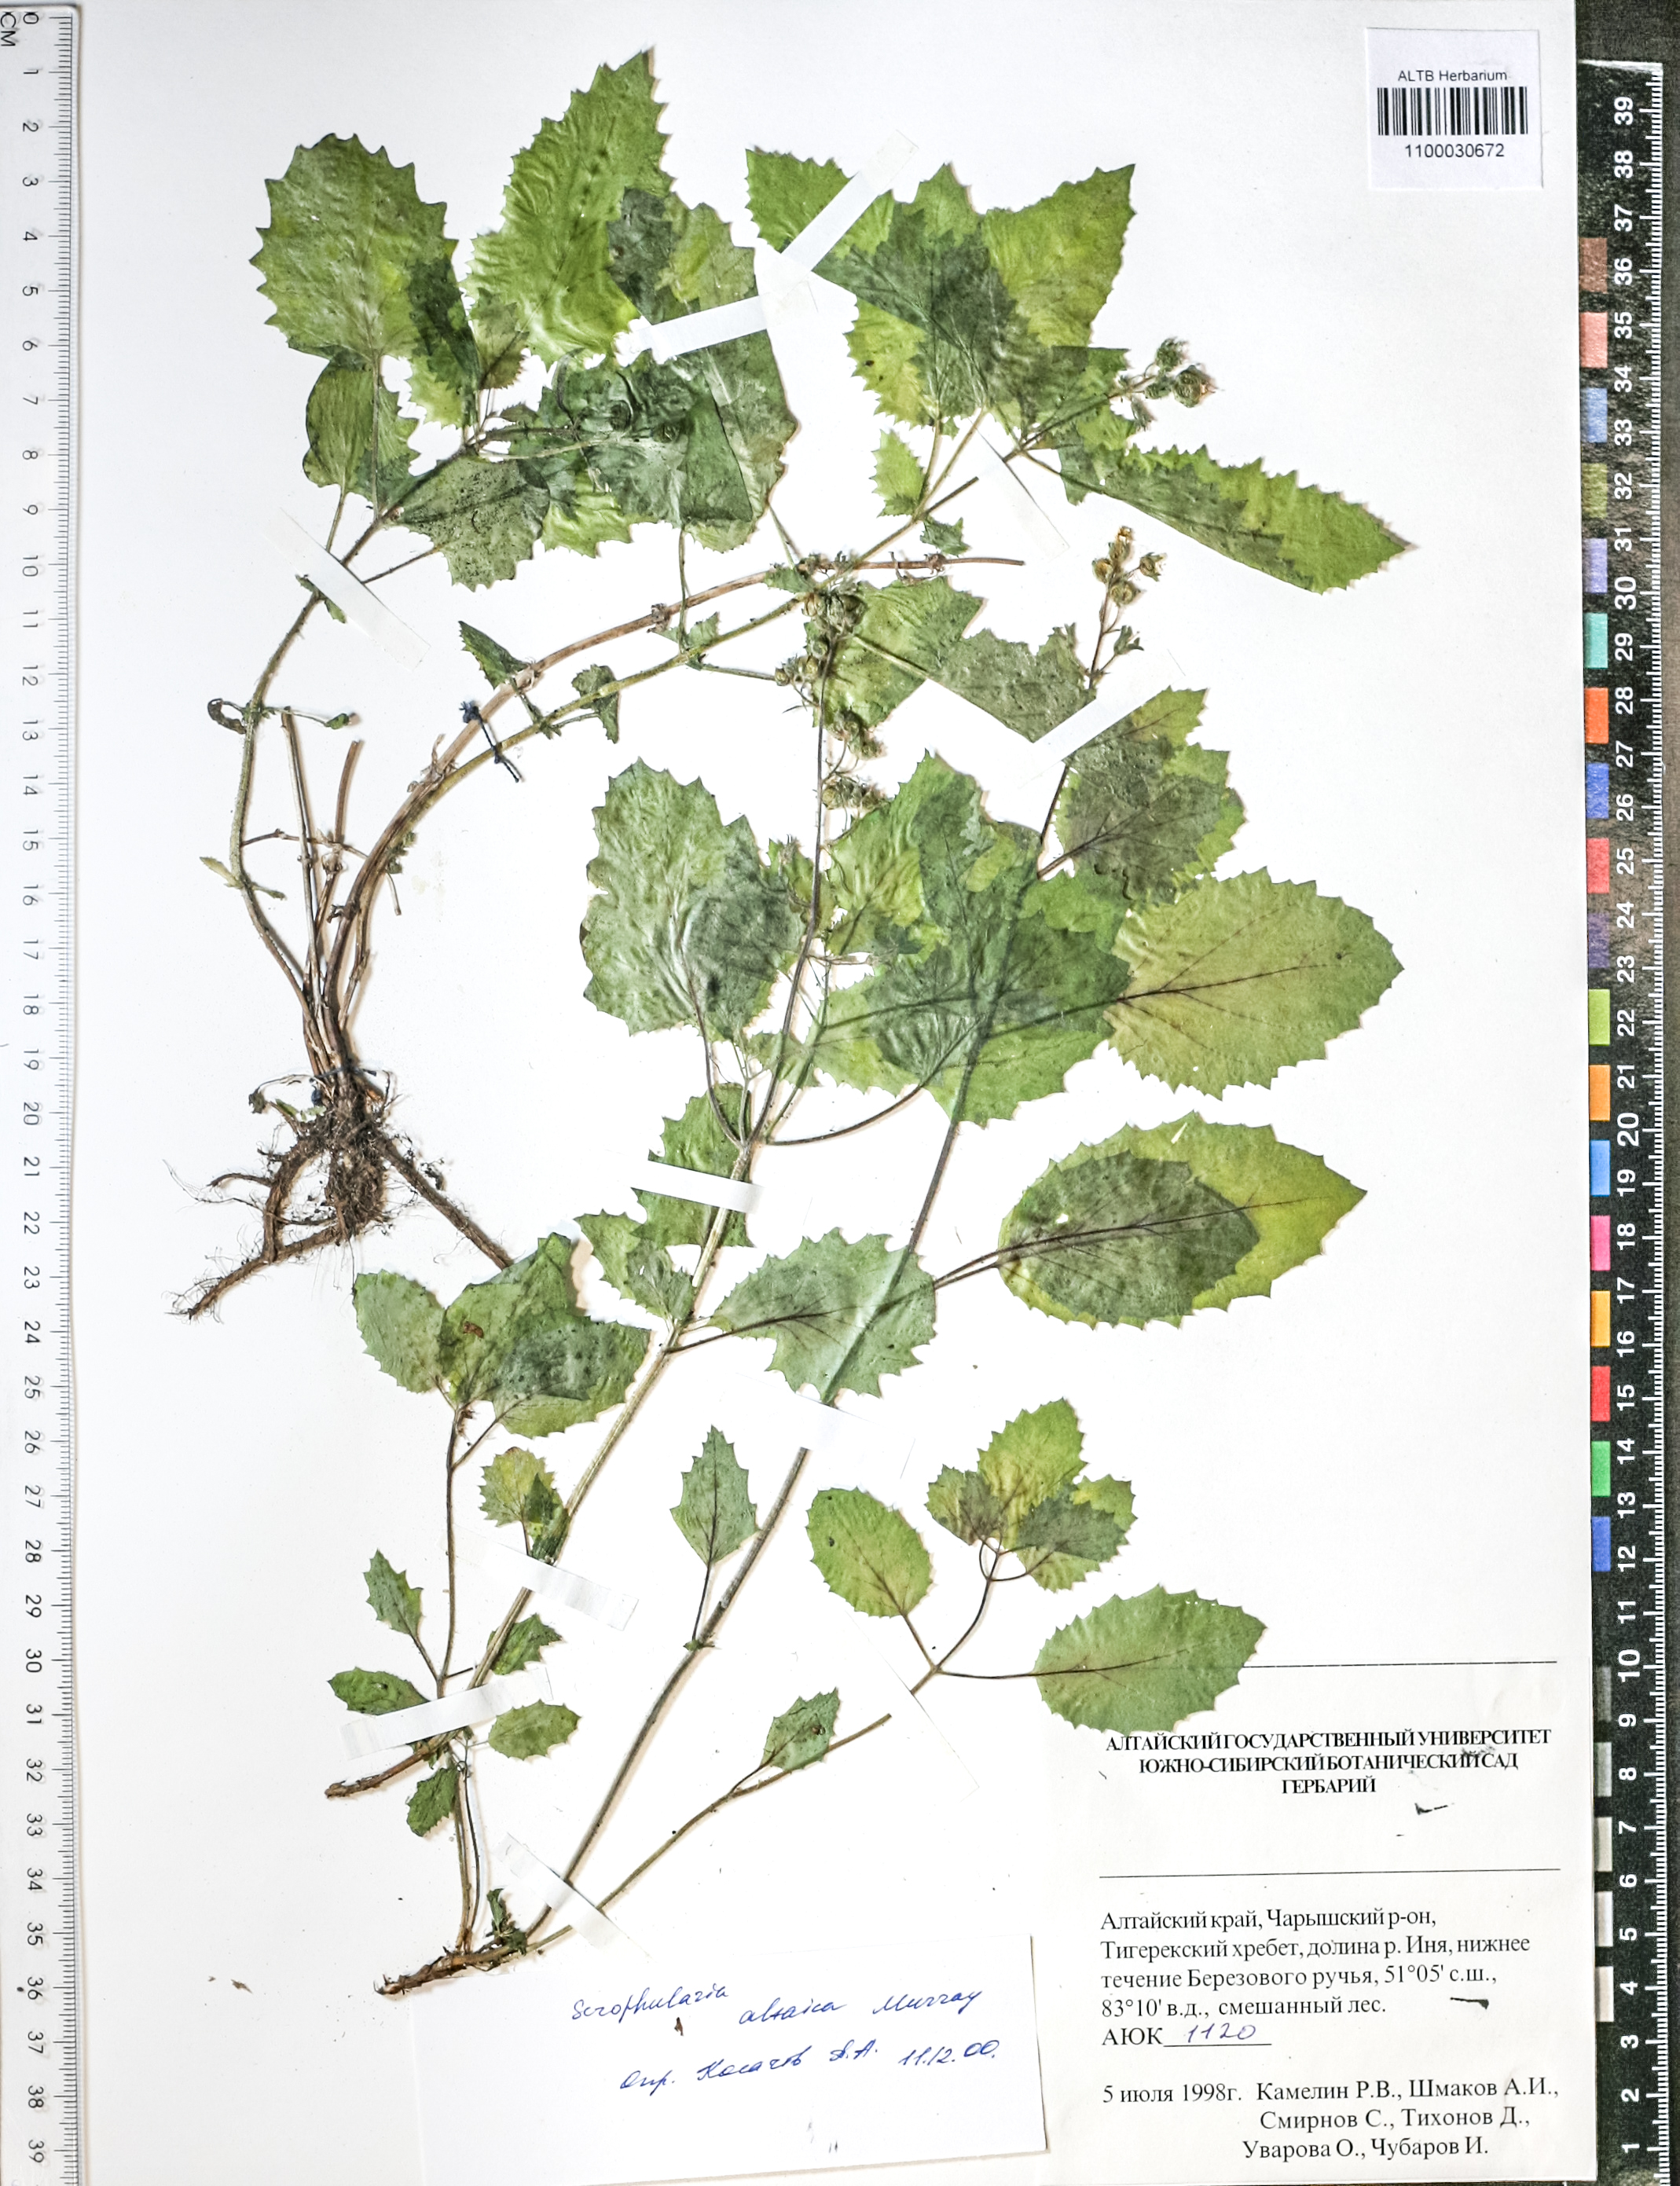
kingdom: Plantae
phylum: Tracheophyta
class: Magnoliopsida
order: Lamiales
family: Scrophulariaceae
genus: Scrophularia
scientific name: Scrophularia altaica
